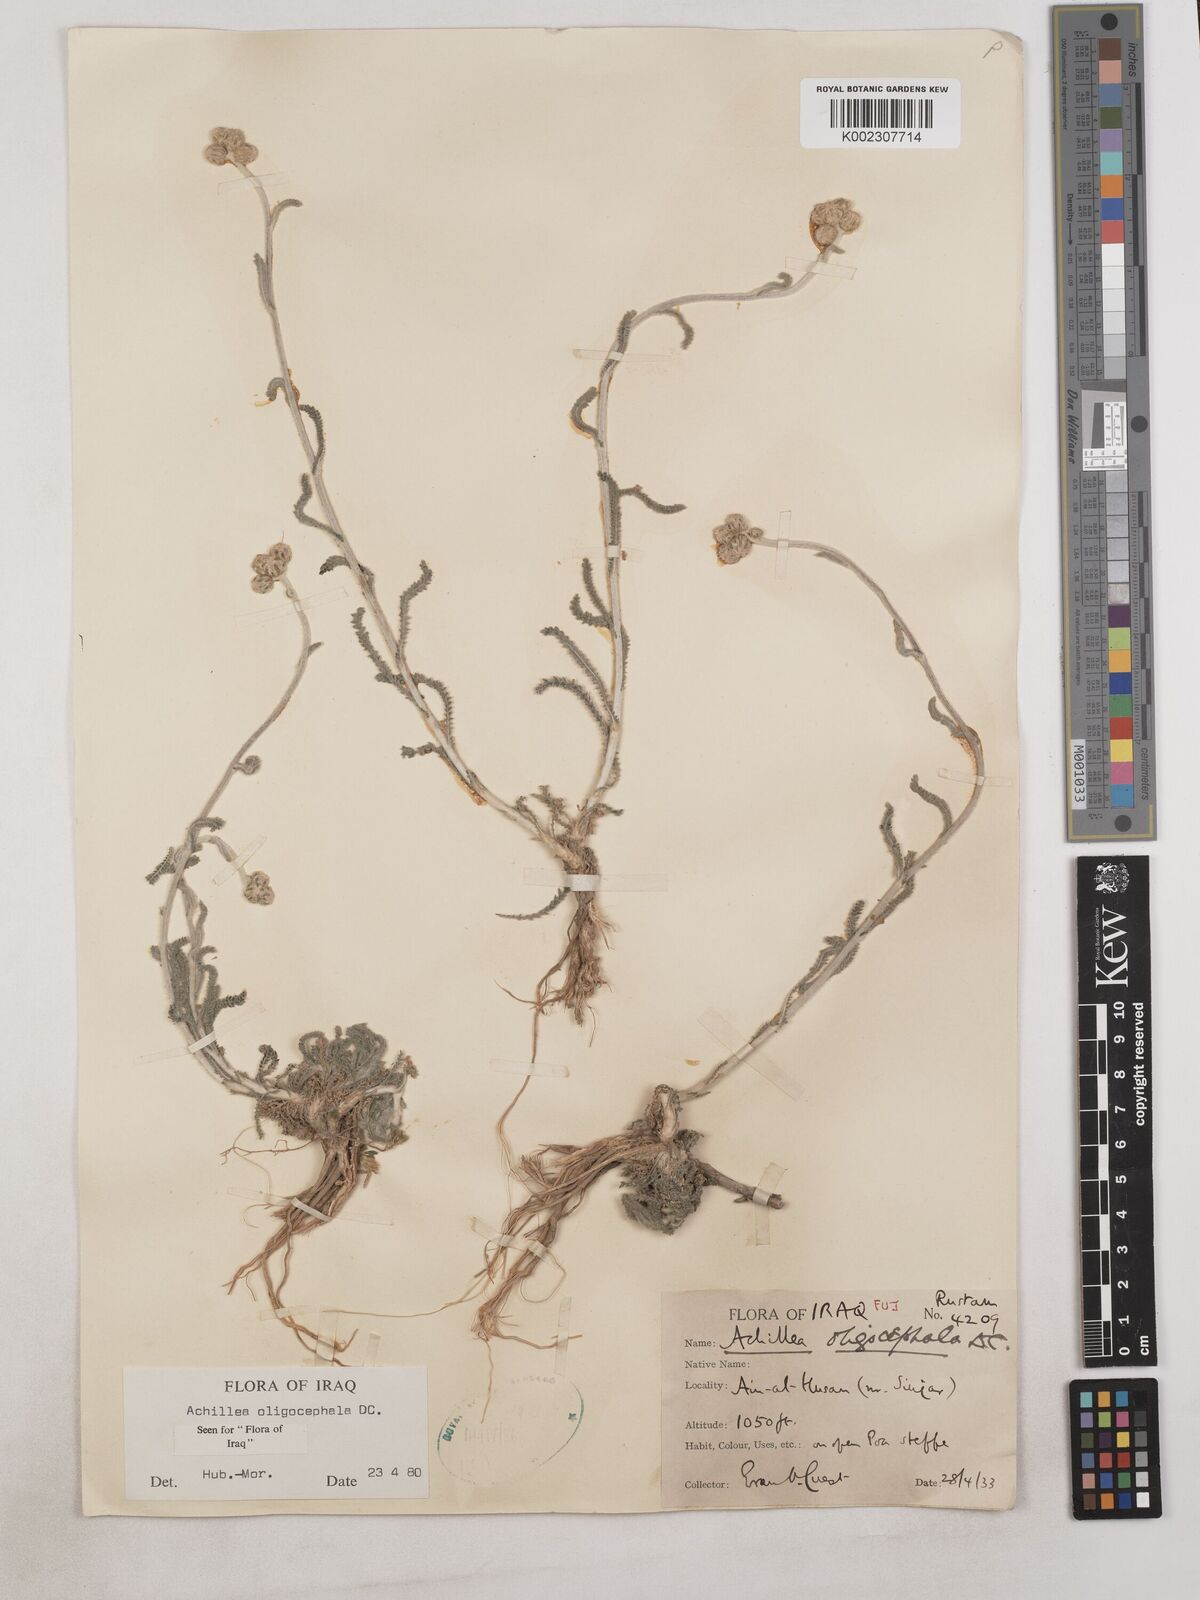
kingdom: Plantae
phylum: Tracheophyta
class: Magnoliopsida
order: Asterales
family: Asteraceae
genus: Achillea
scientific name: Achillea oligocephala
